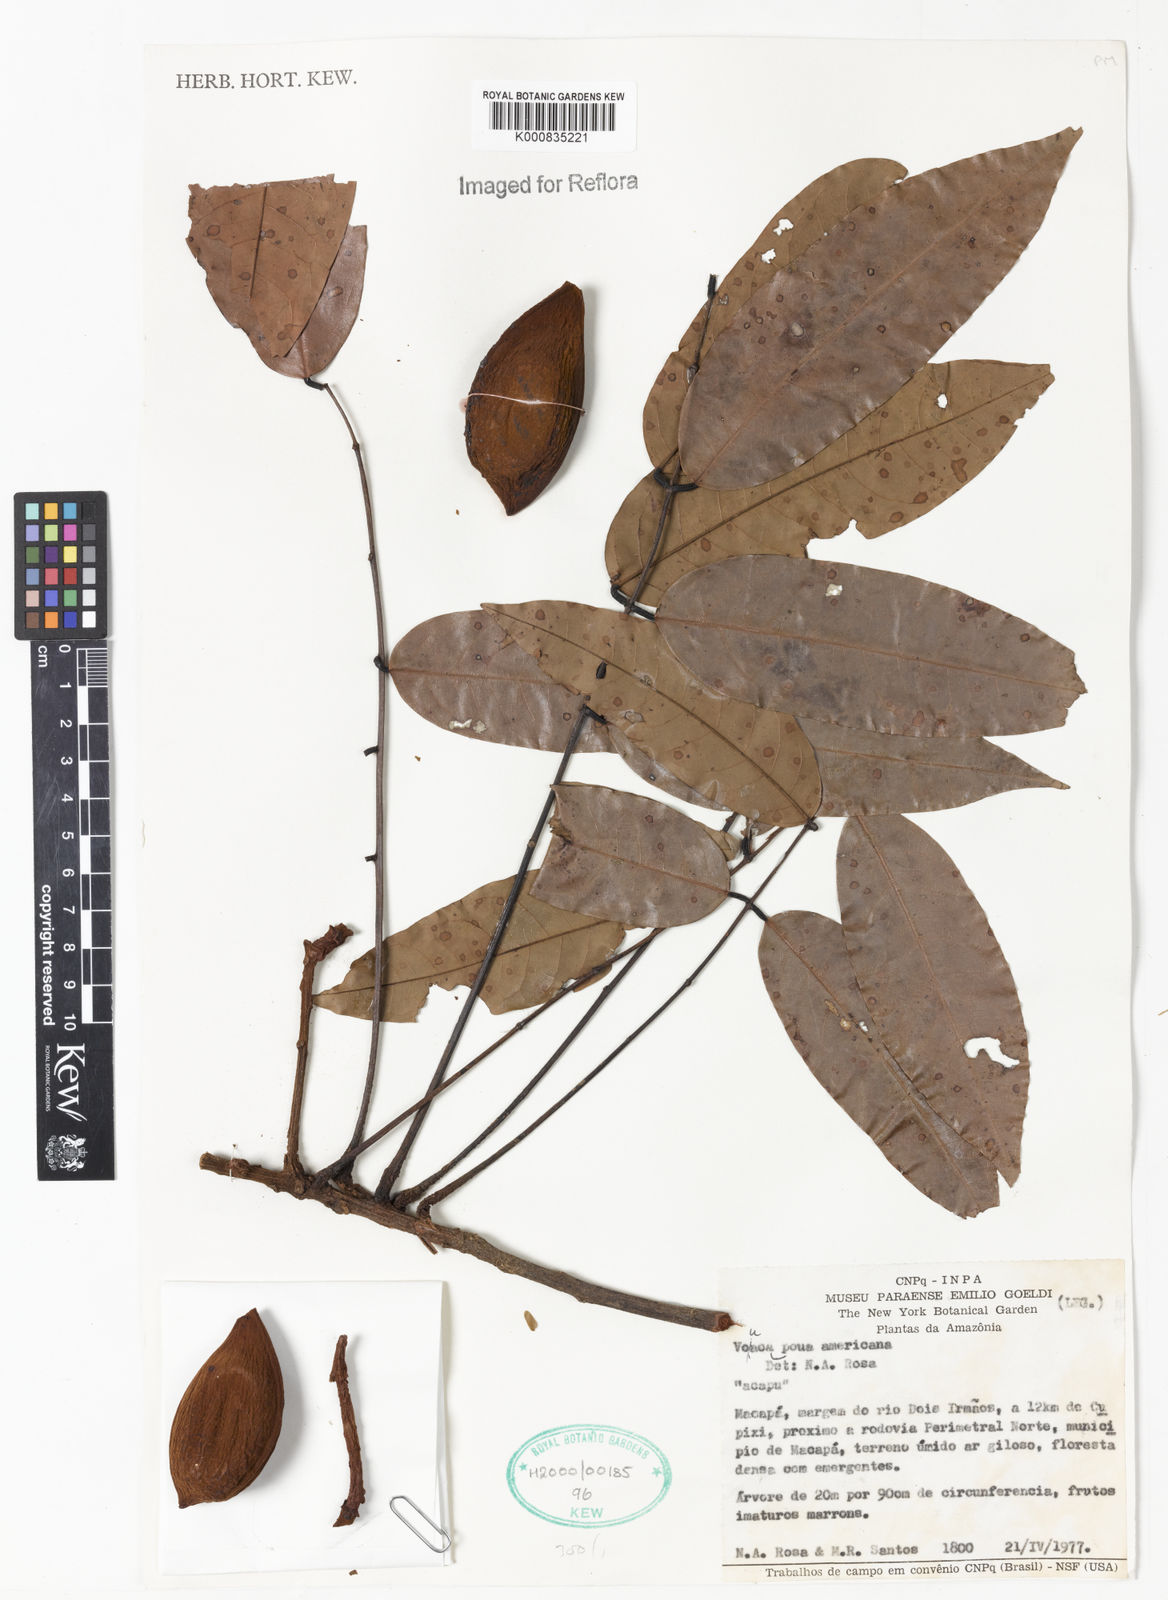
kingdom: Plantae
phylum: Tracheophyta
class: Magnoliopsida
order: Fabales
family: Fabaceae
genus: Vouacapoua
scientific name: Vouacapoua americana
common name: Partridgewood
